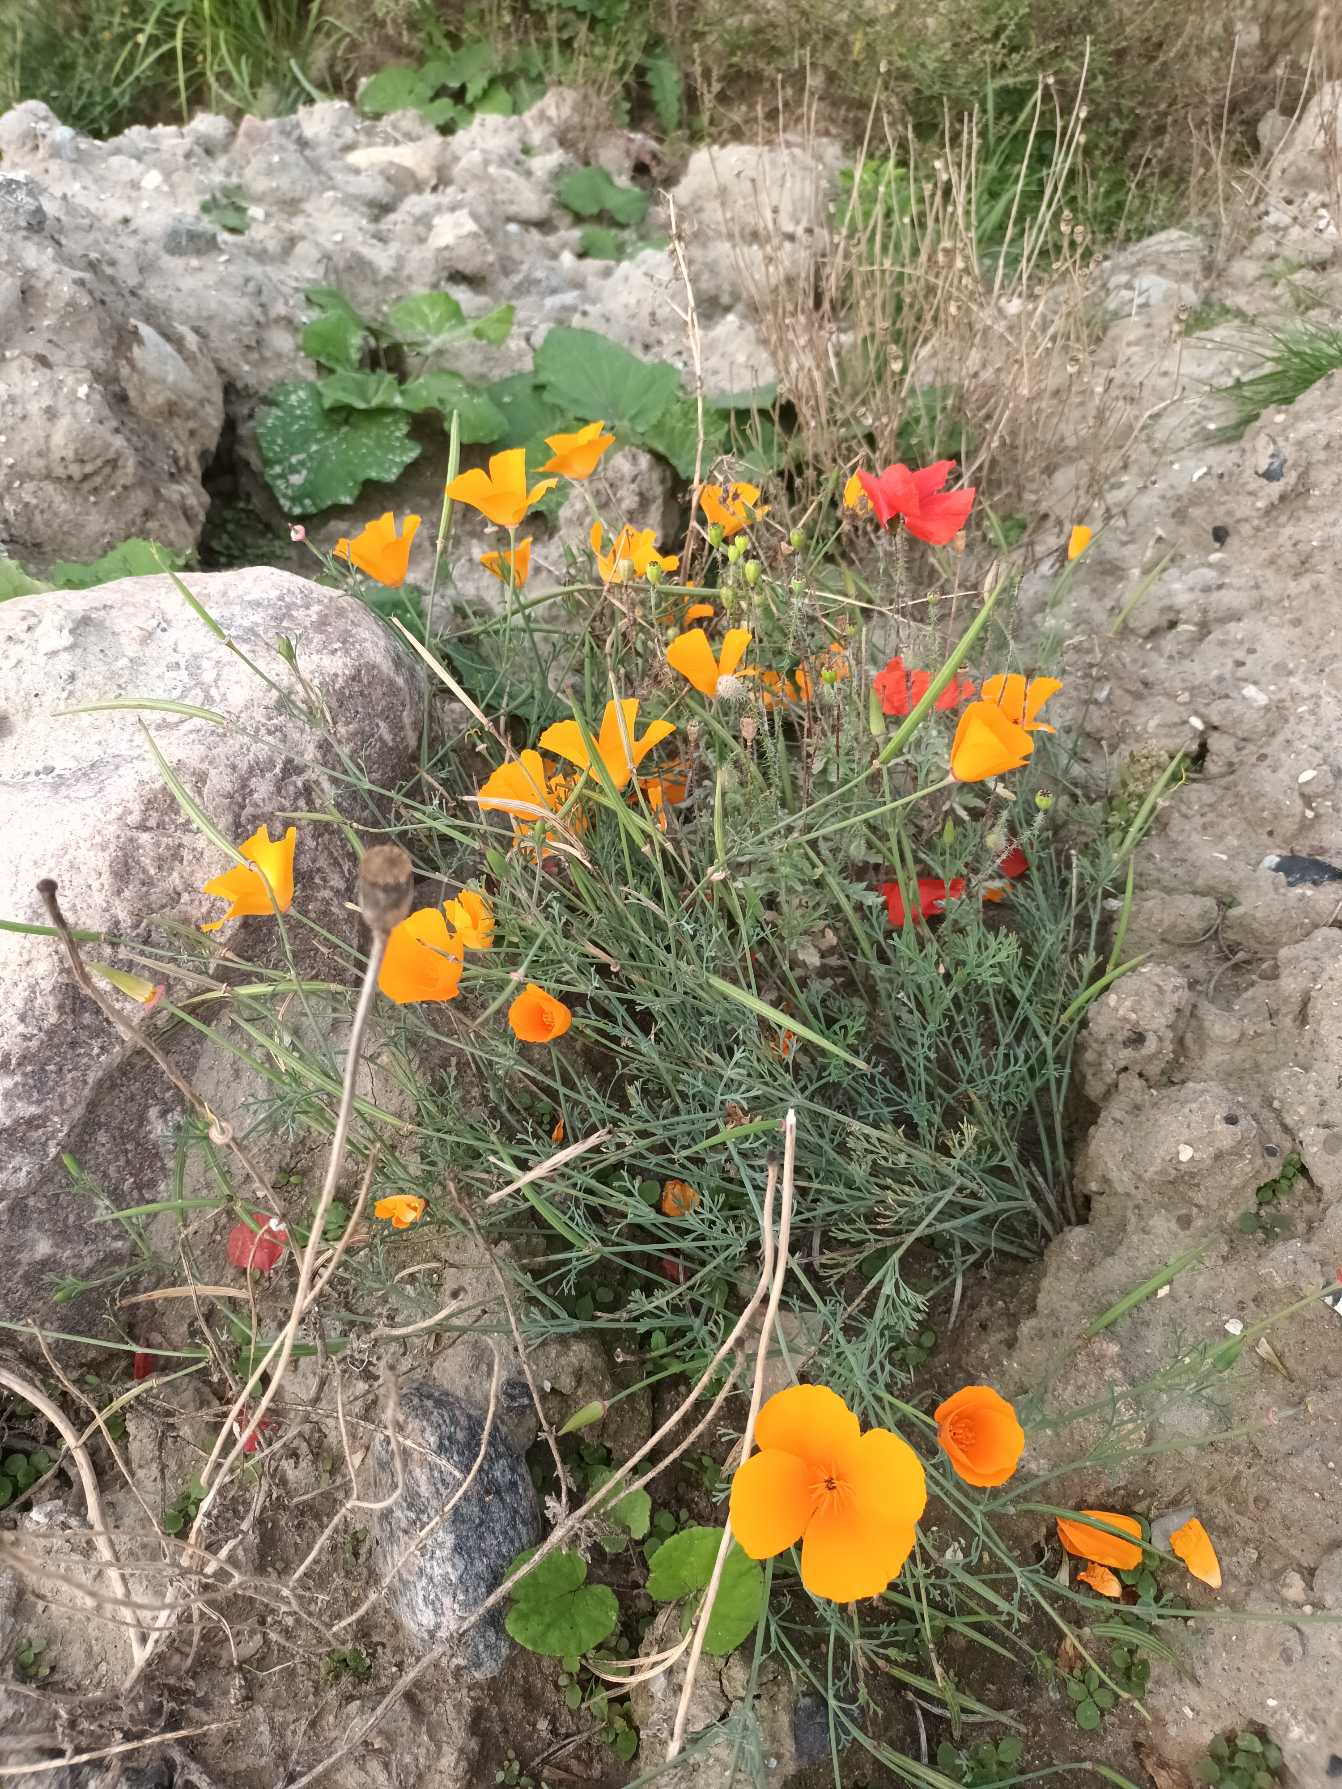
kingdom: Plantae
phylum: Tracheophyta
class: Magnoliopsida
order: Ranunculales
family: Papaveraceae
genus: Eschscholzia
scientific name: Eschscholzia californica
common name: Guldvalmue
